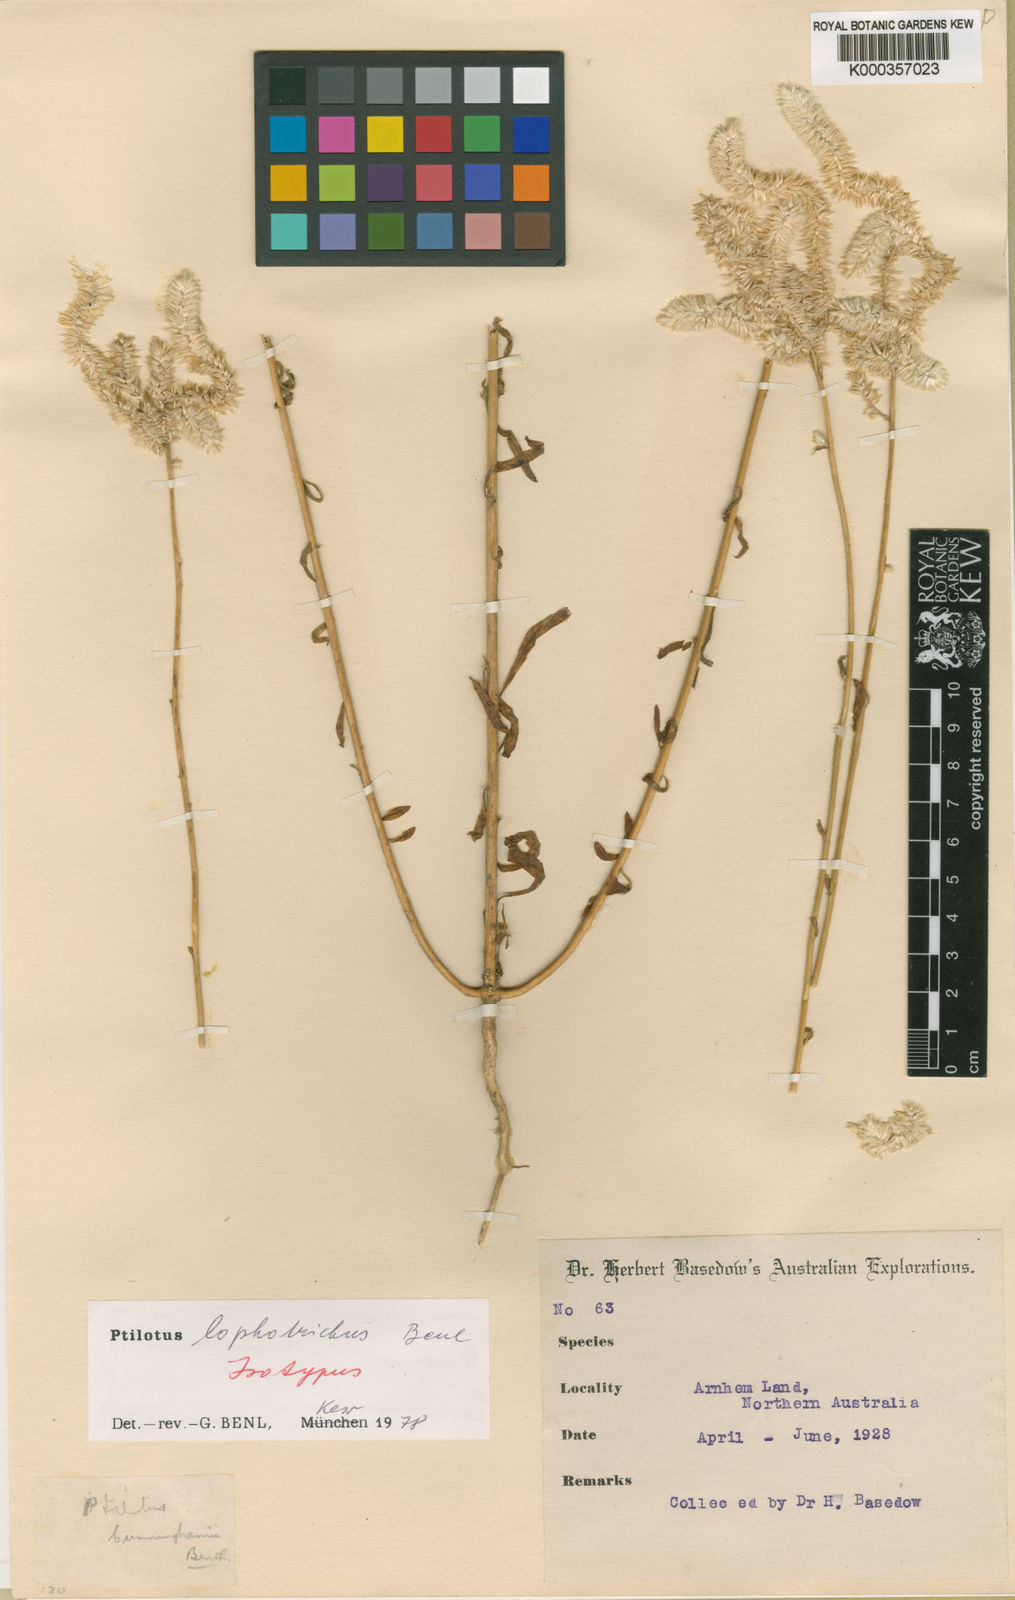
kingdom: Plantae
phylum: Tracheophyta
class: Magnoliopsida
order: Caryophyllales
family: Amaranthaceae
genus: Ptilotus
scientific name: Ptilotus lophotrichus
